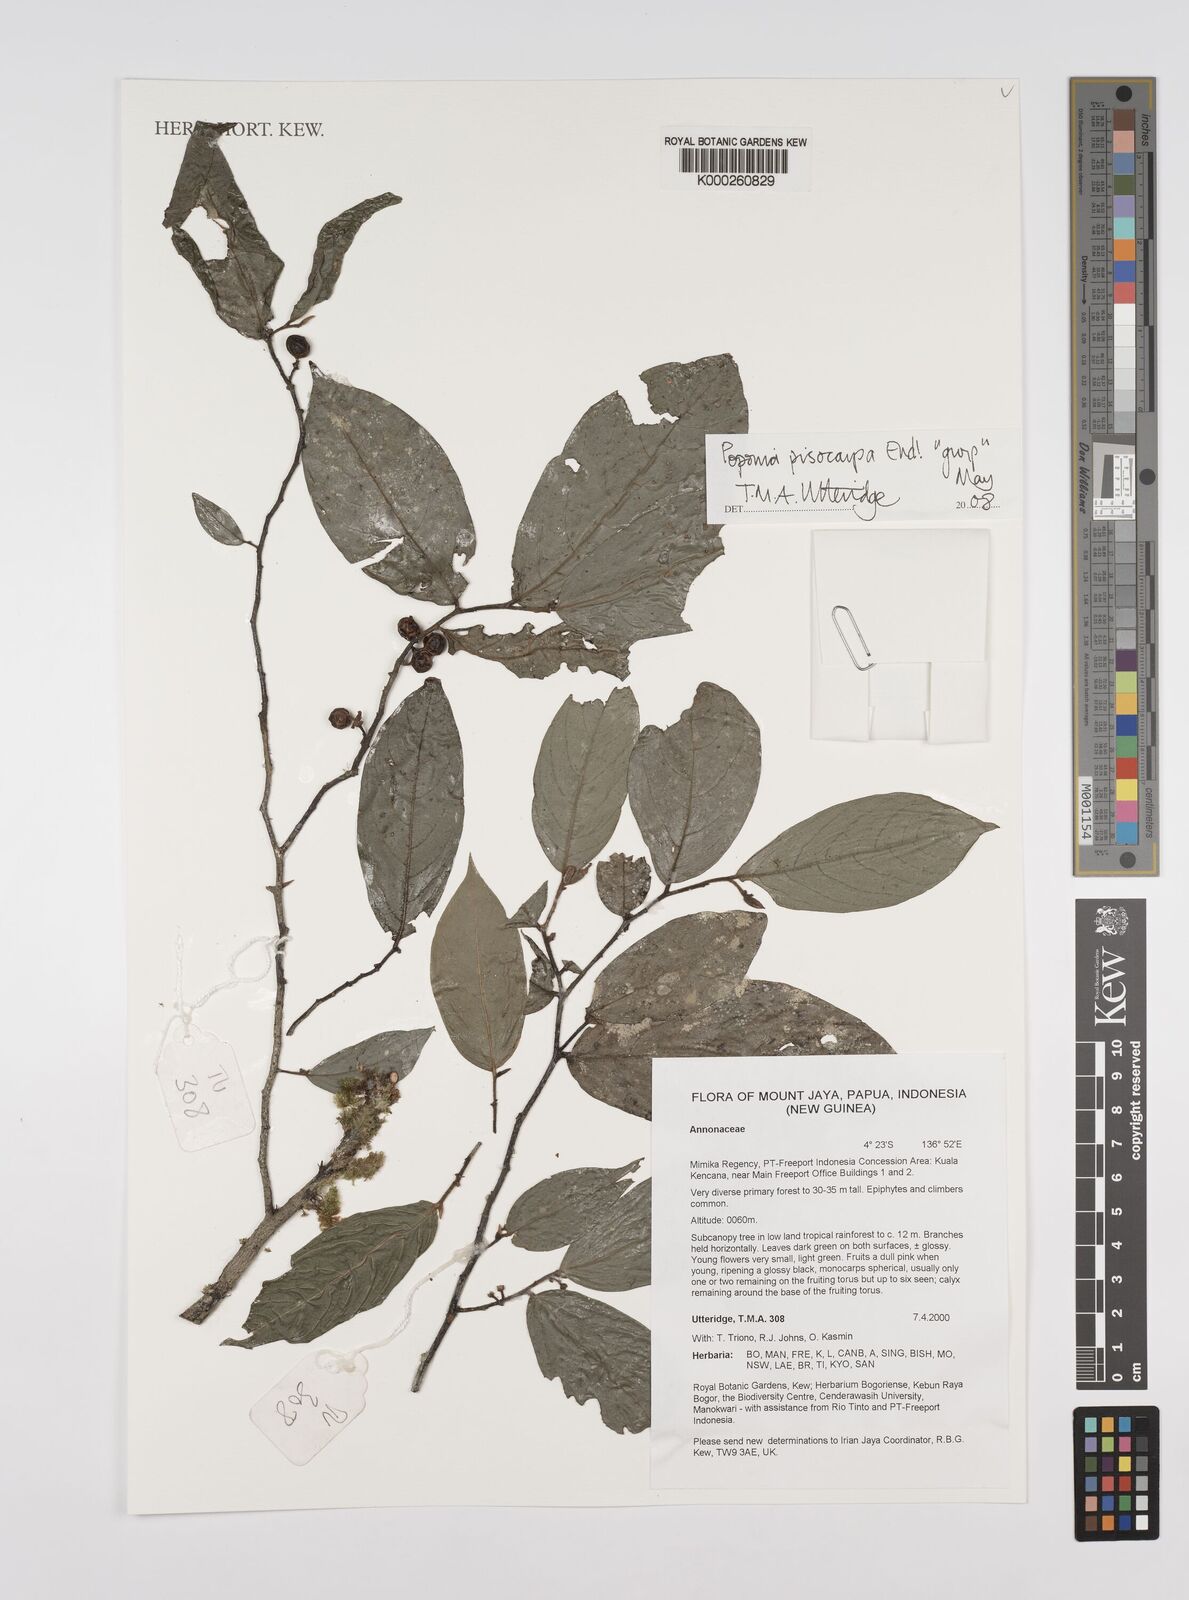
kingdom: Plantae
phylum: Tracheophyta
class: Magnoliopsida
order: Magnoliales
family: Annonaceae
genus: Popowia
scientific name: Popowia
